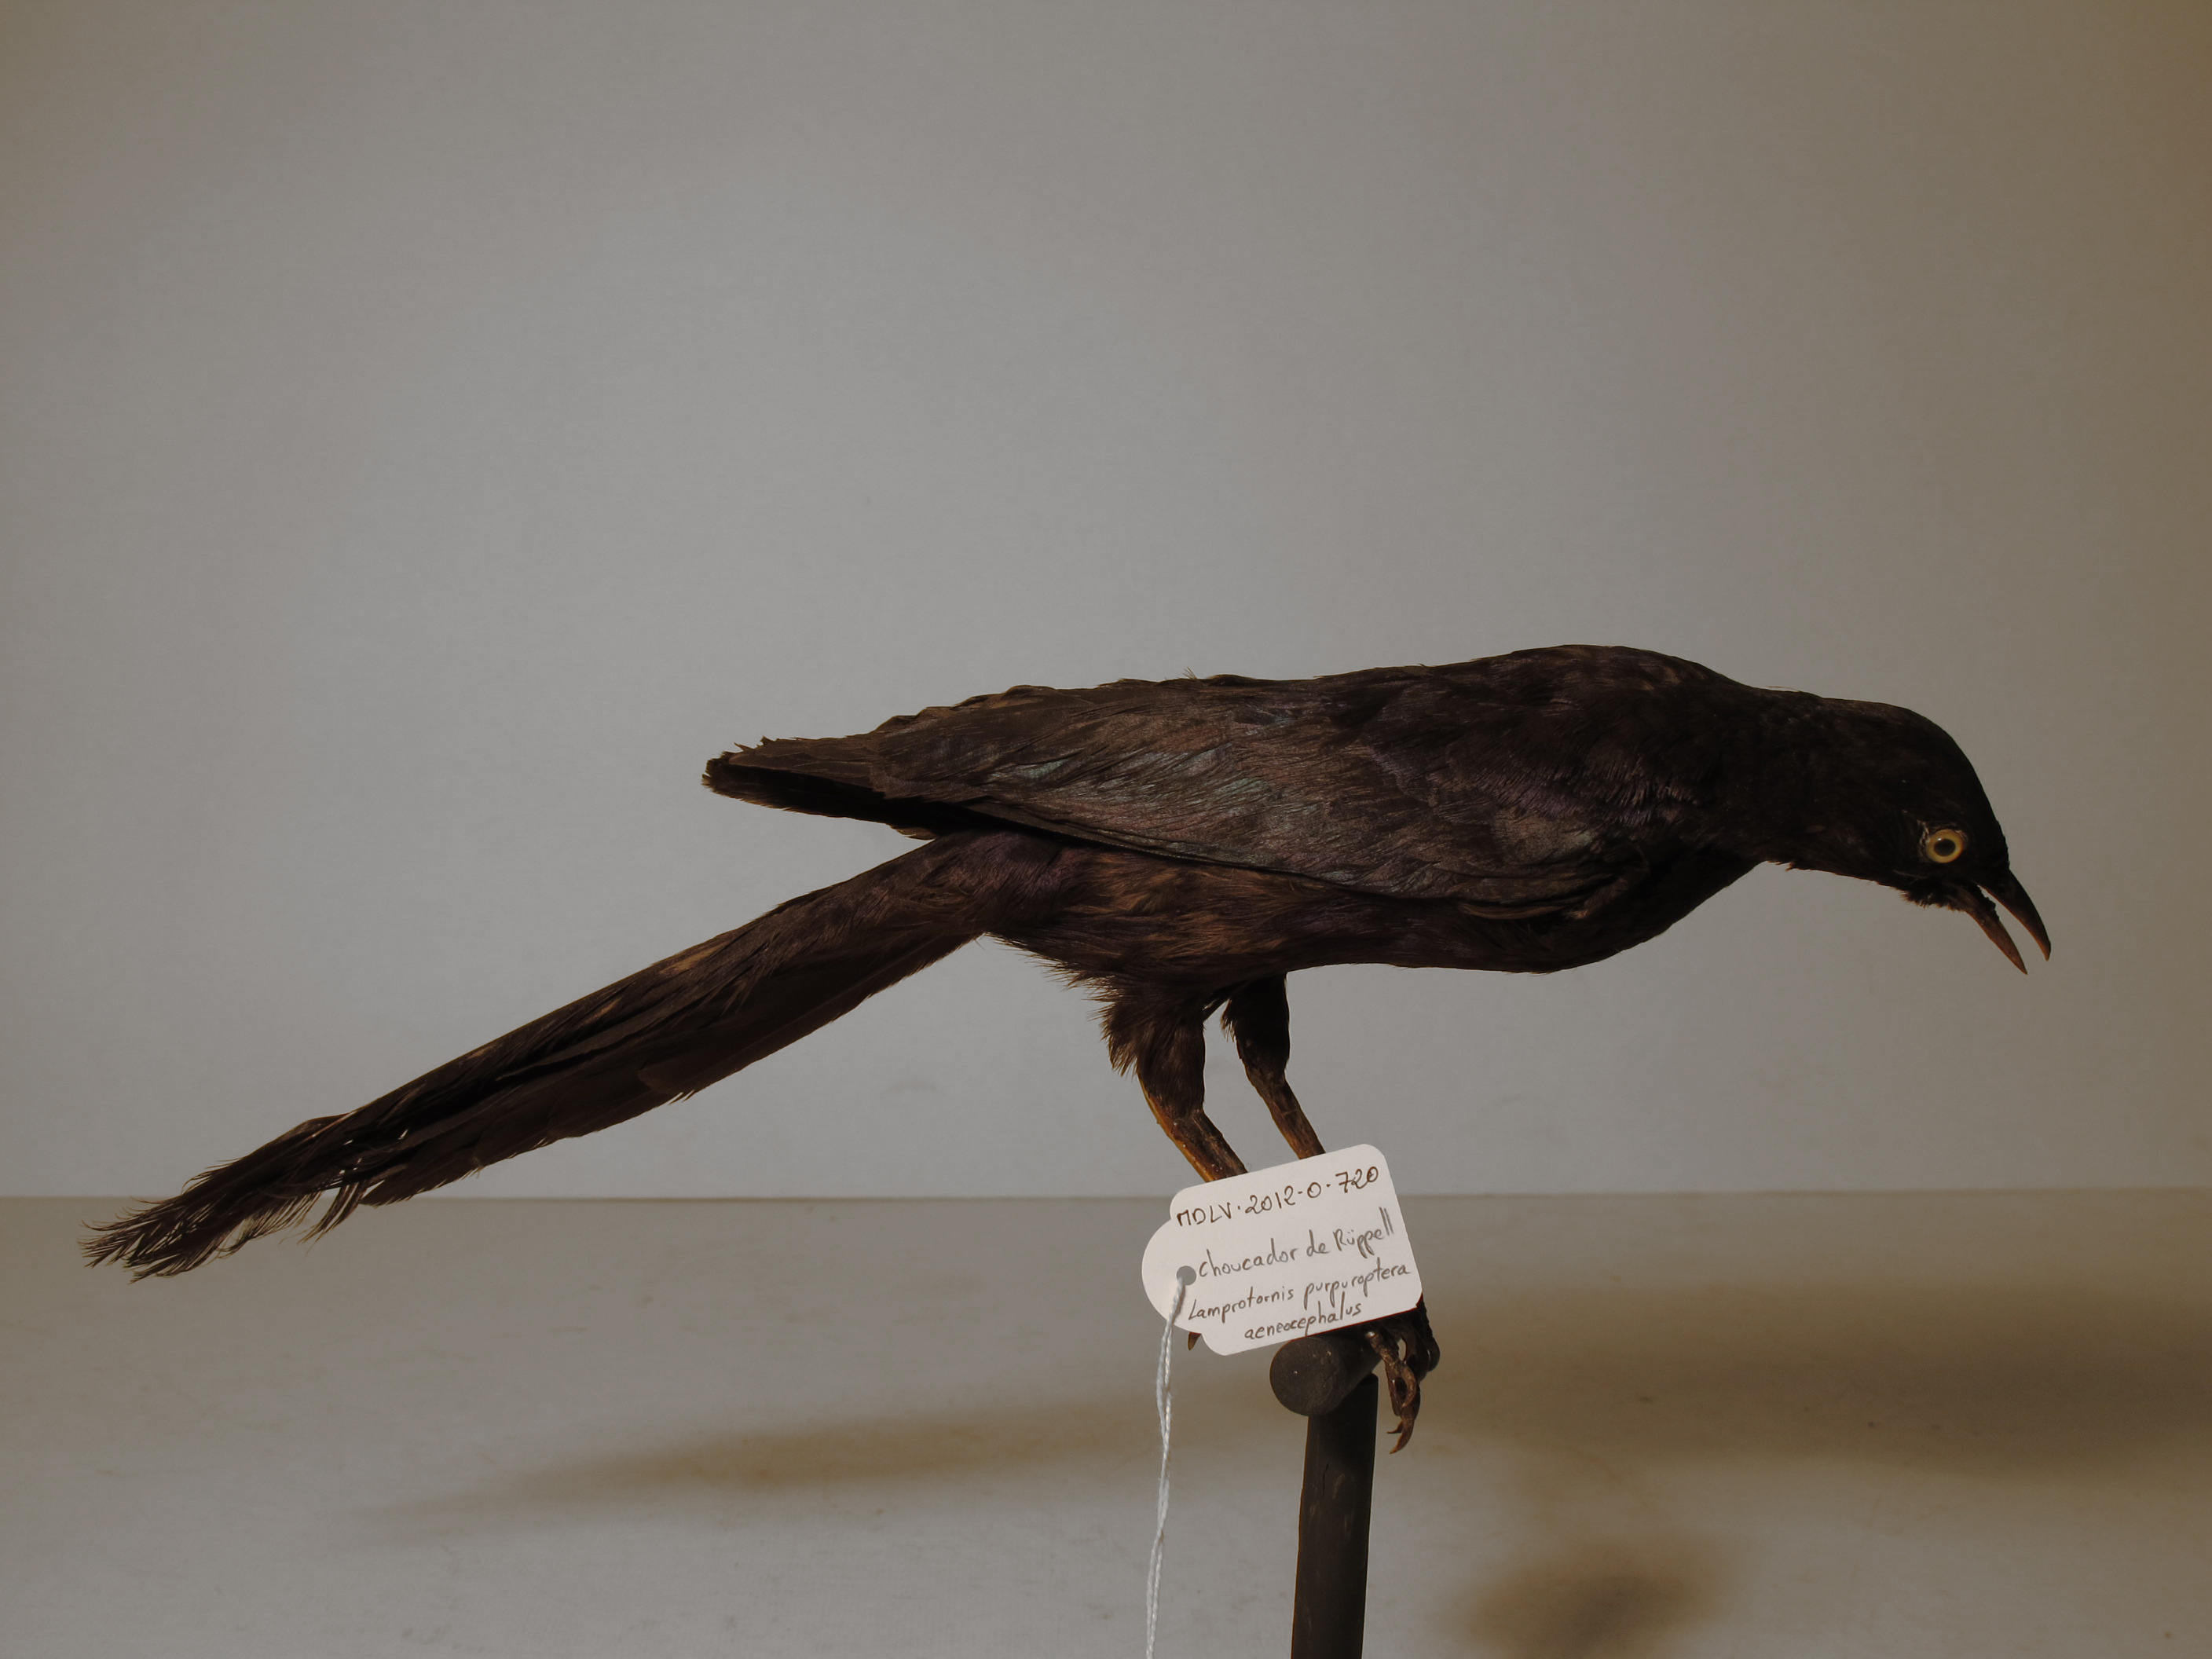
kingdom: Animalia
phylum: Chordata
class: Aves
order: Passeriformes
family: Sturnidae
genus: Lamprotornis
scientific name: Lamprotornis purpuroptera
